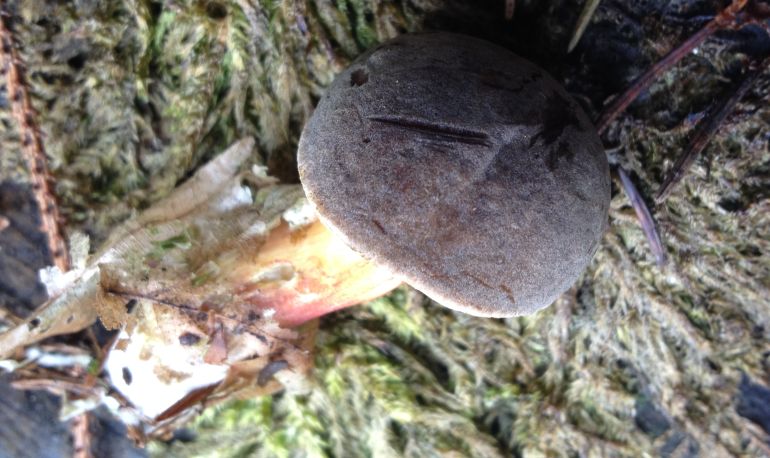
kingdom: Fungi
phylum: Basidiomycota
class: Agaricomycetes
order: Boletales
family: Boletaceae
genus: Xerocomellus
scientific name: Xerocomellus chrysenteron
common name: rødsprukken rørhat
